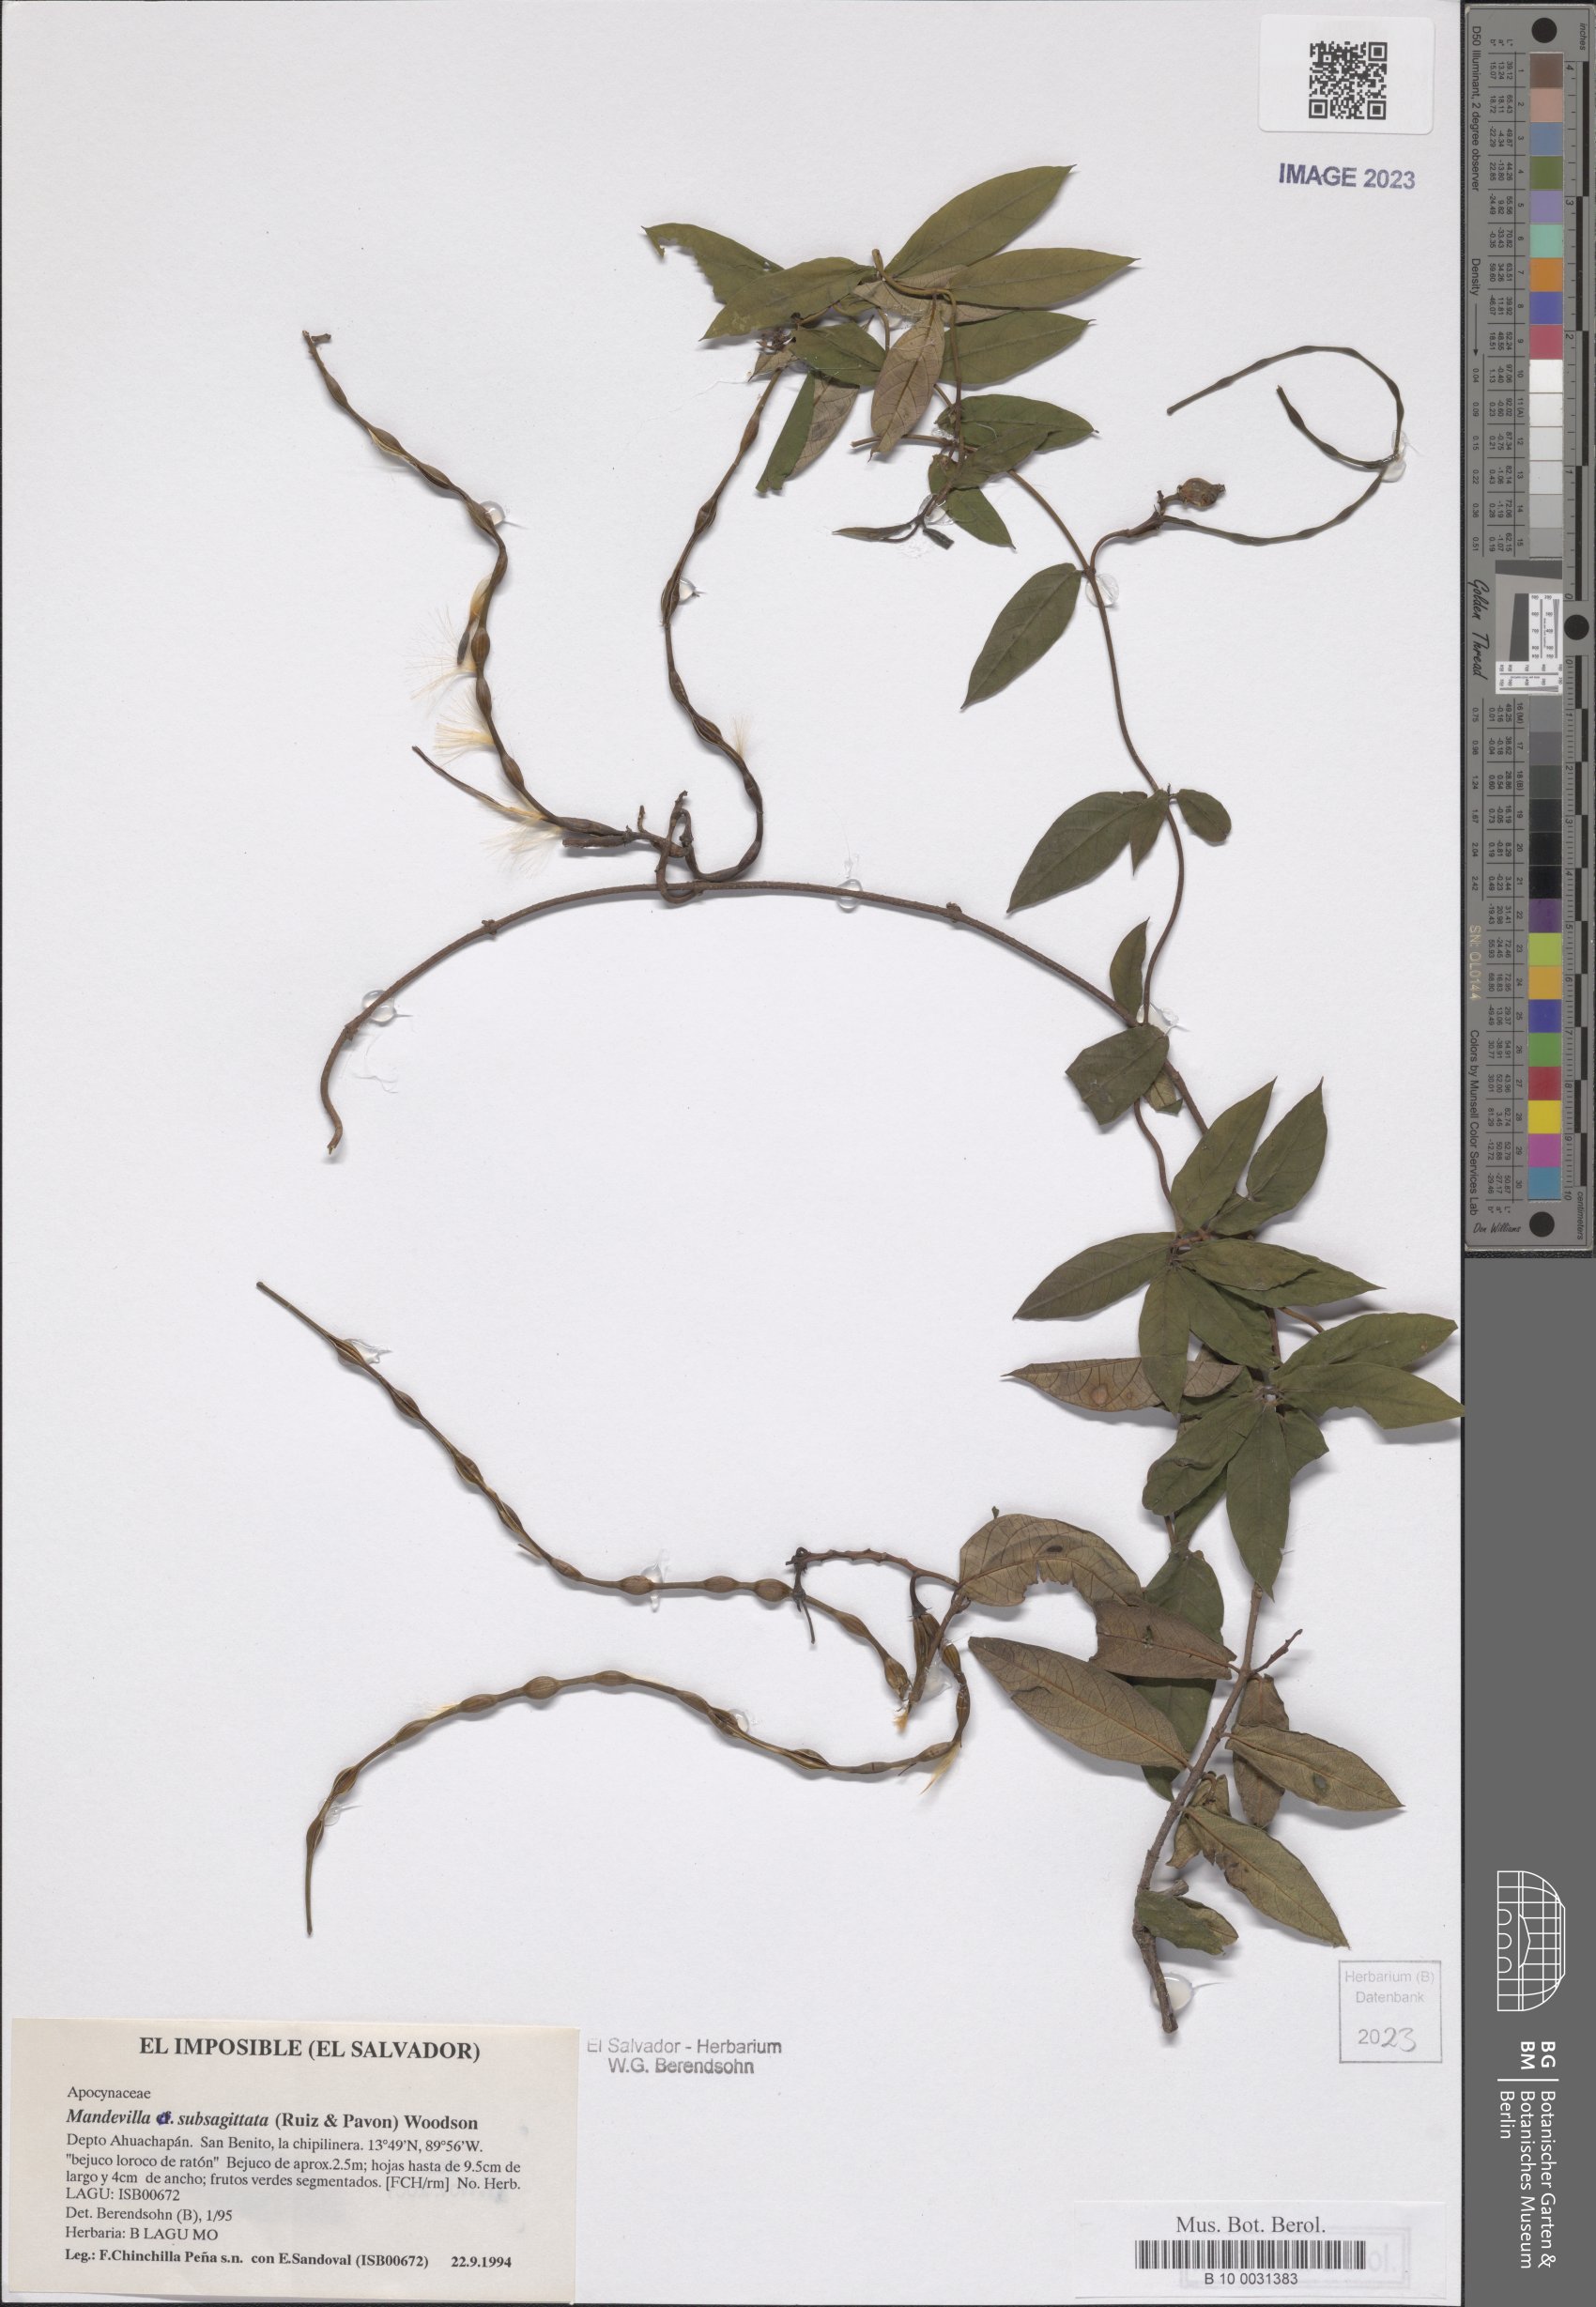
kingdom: Plantae
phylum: Tracheophyta
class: Magnoliopsida
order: Gentianales
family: Apocynaceae
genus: Mandevilla
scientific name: Mandevilla subsagittata
